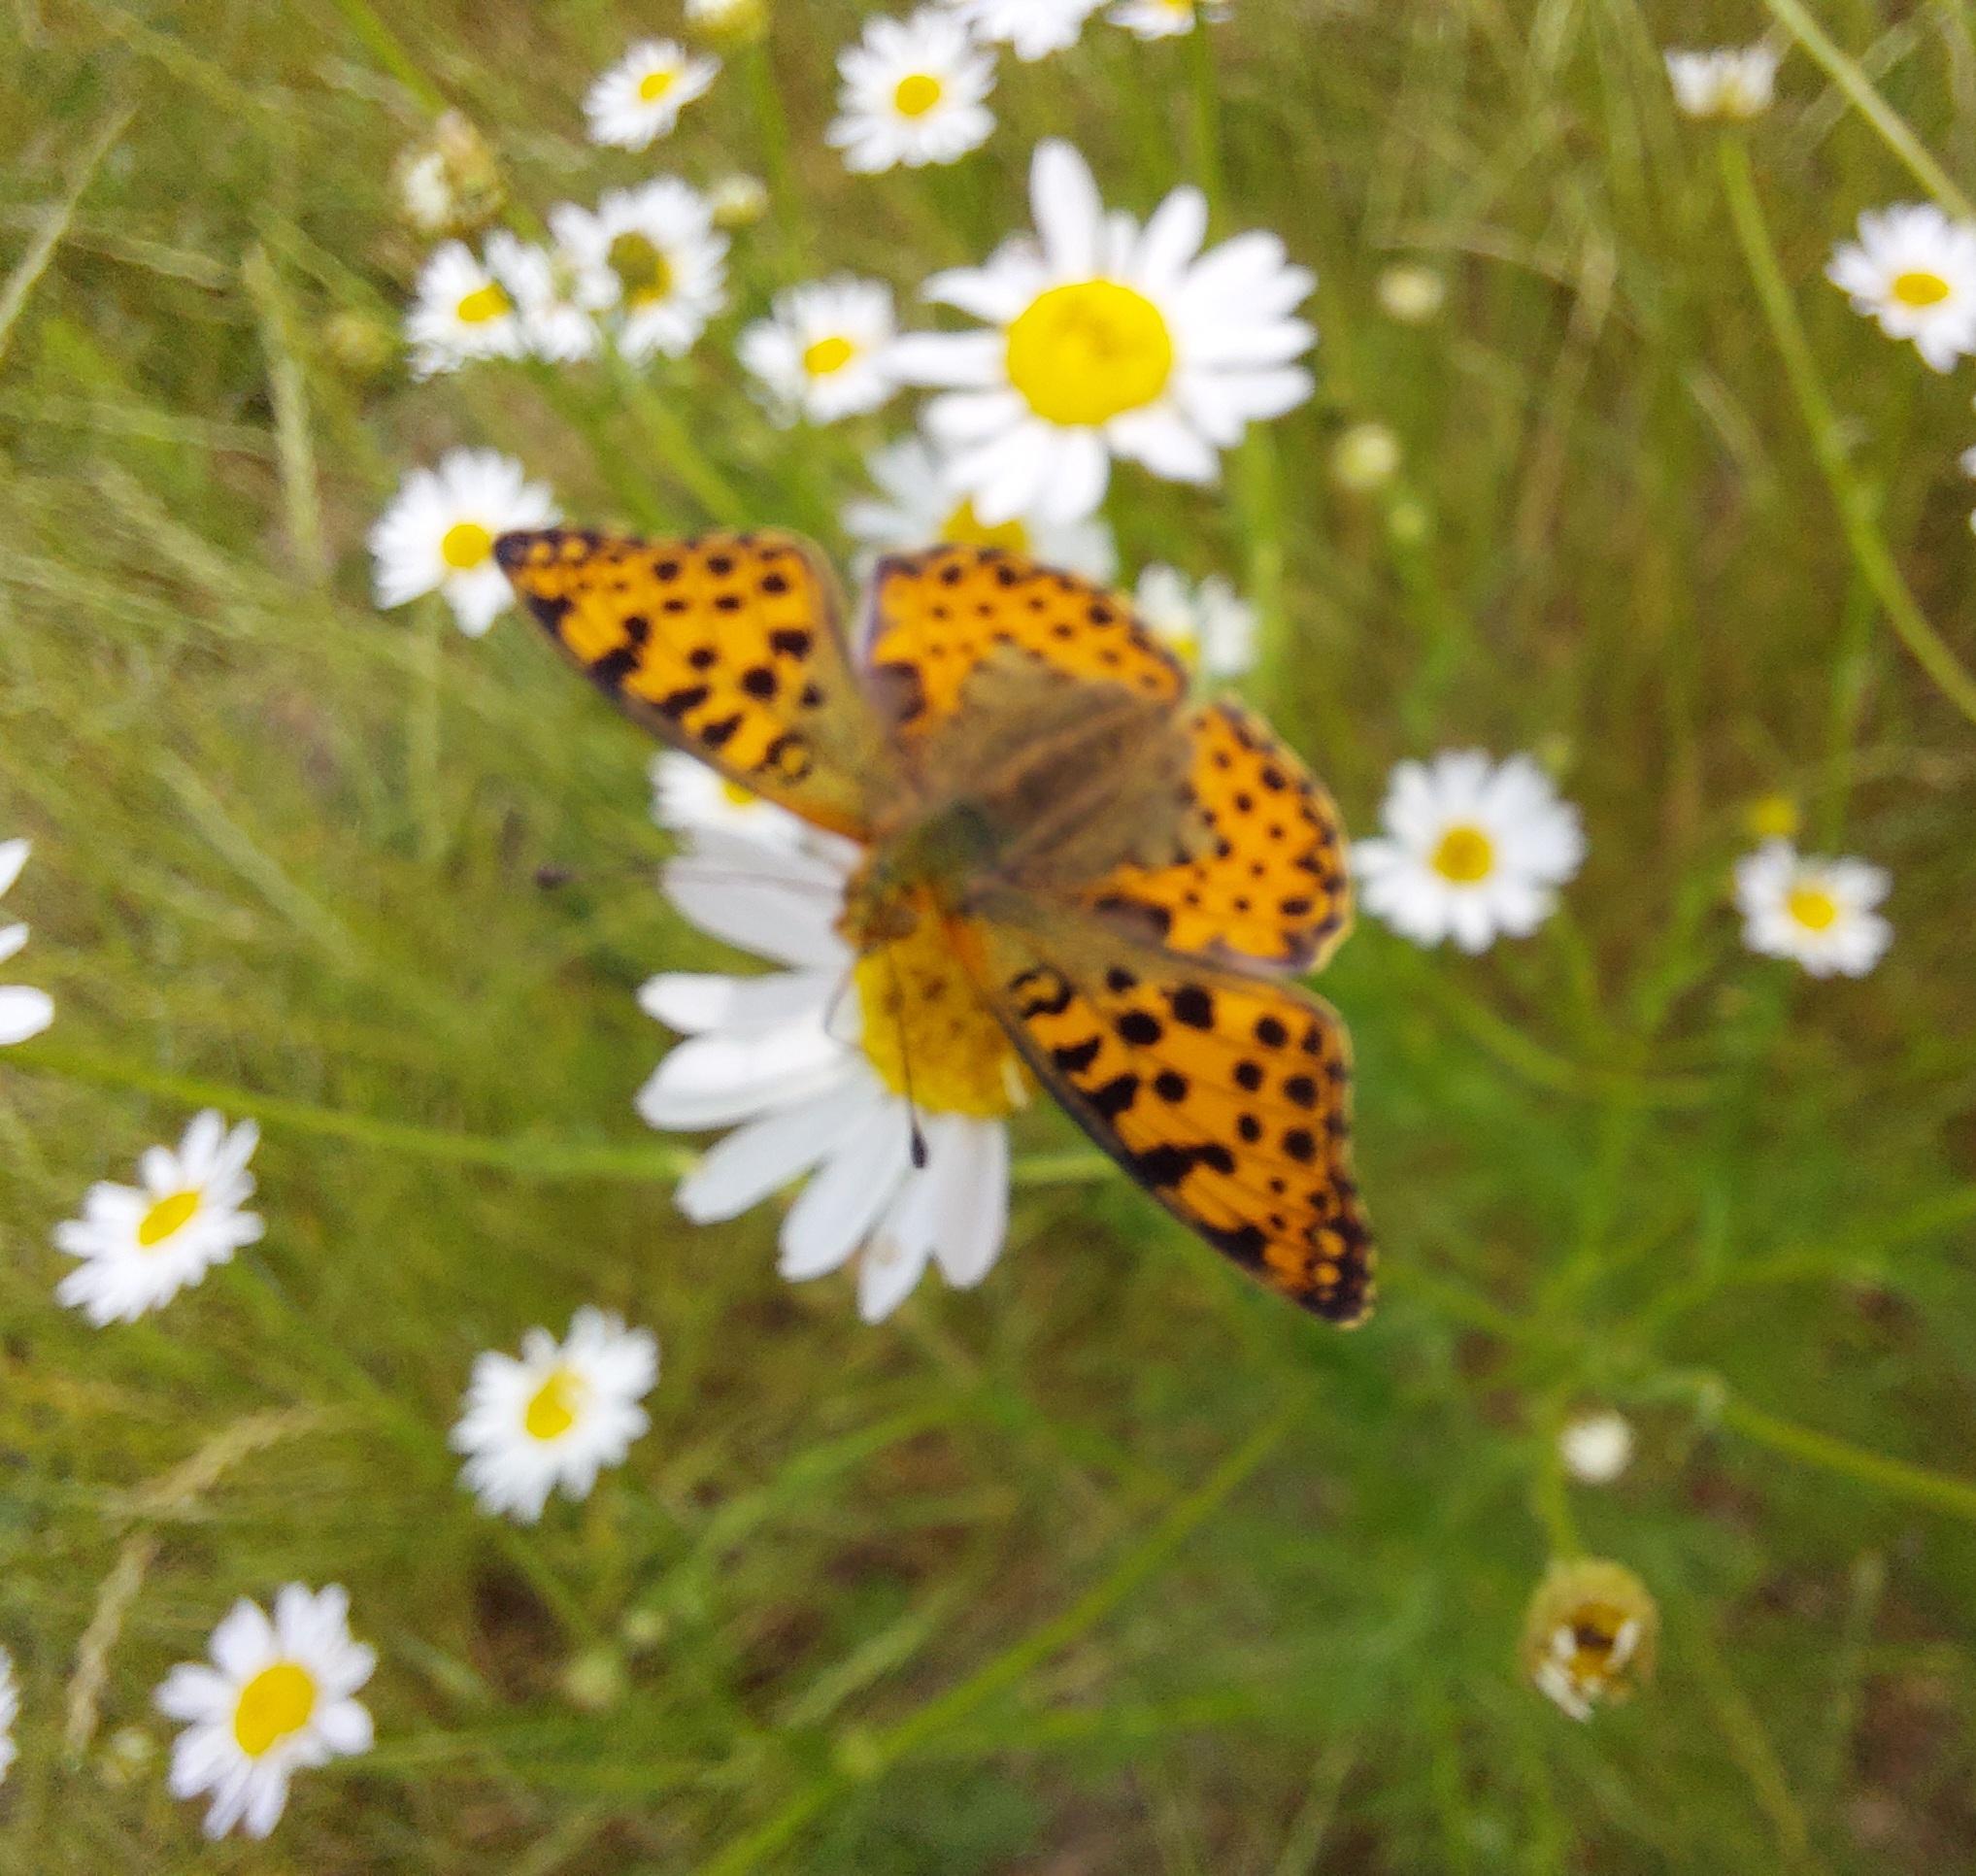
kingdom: Animalia
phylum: Arthropoda
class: Insecta
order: Lepidoptera
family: Nymphalidae
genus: Issoria
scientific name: Issoria lathonia
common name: Storplettet perlemorsommerfugl
